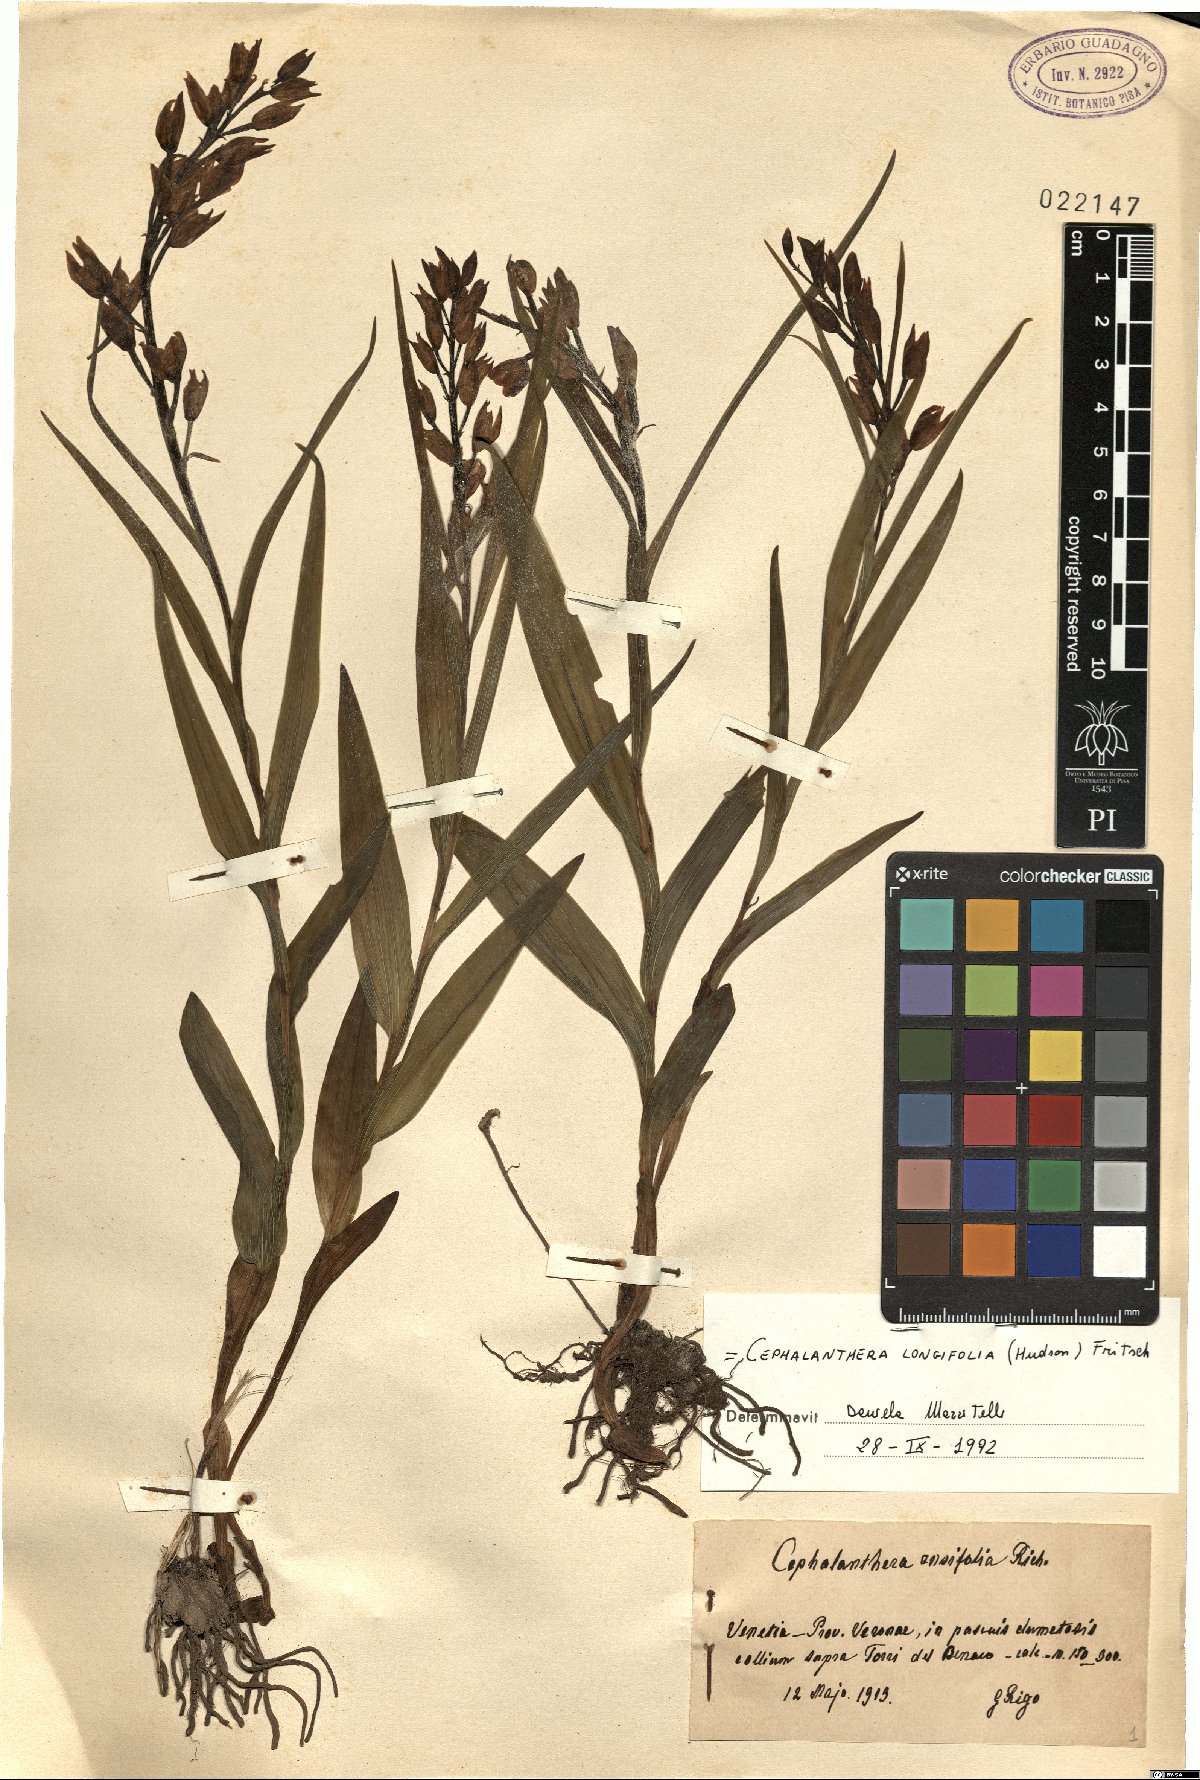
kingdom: Plantae
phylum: Tracheophyta
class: Liliopsida
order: Asparagales
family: Orchidaceae
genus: Cephalanthera
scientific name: Cephalanthera longifolia
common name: Narrow-leaved helleborine
